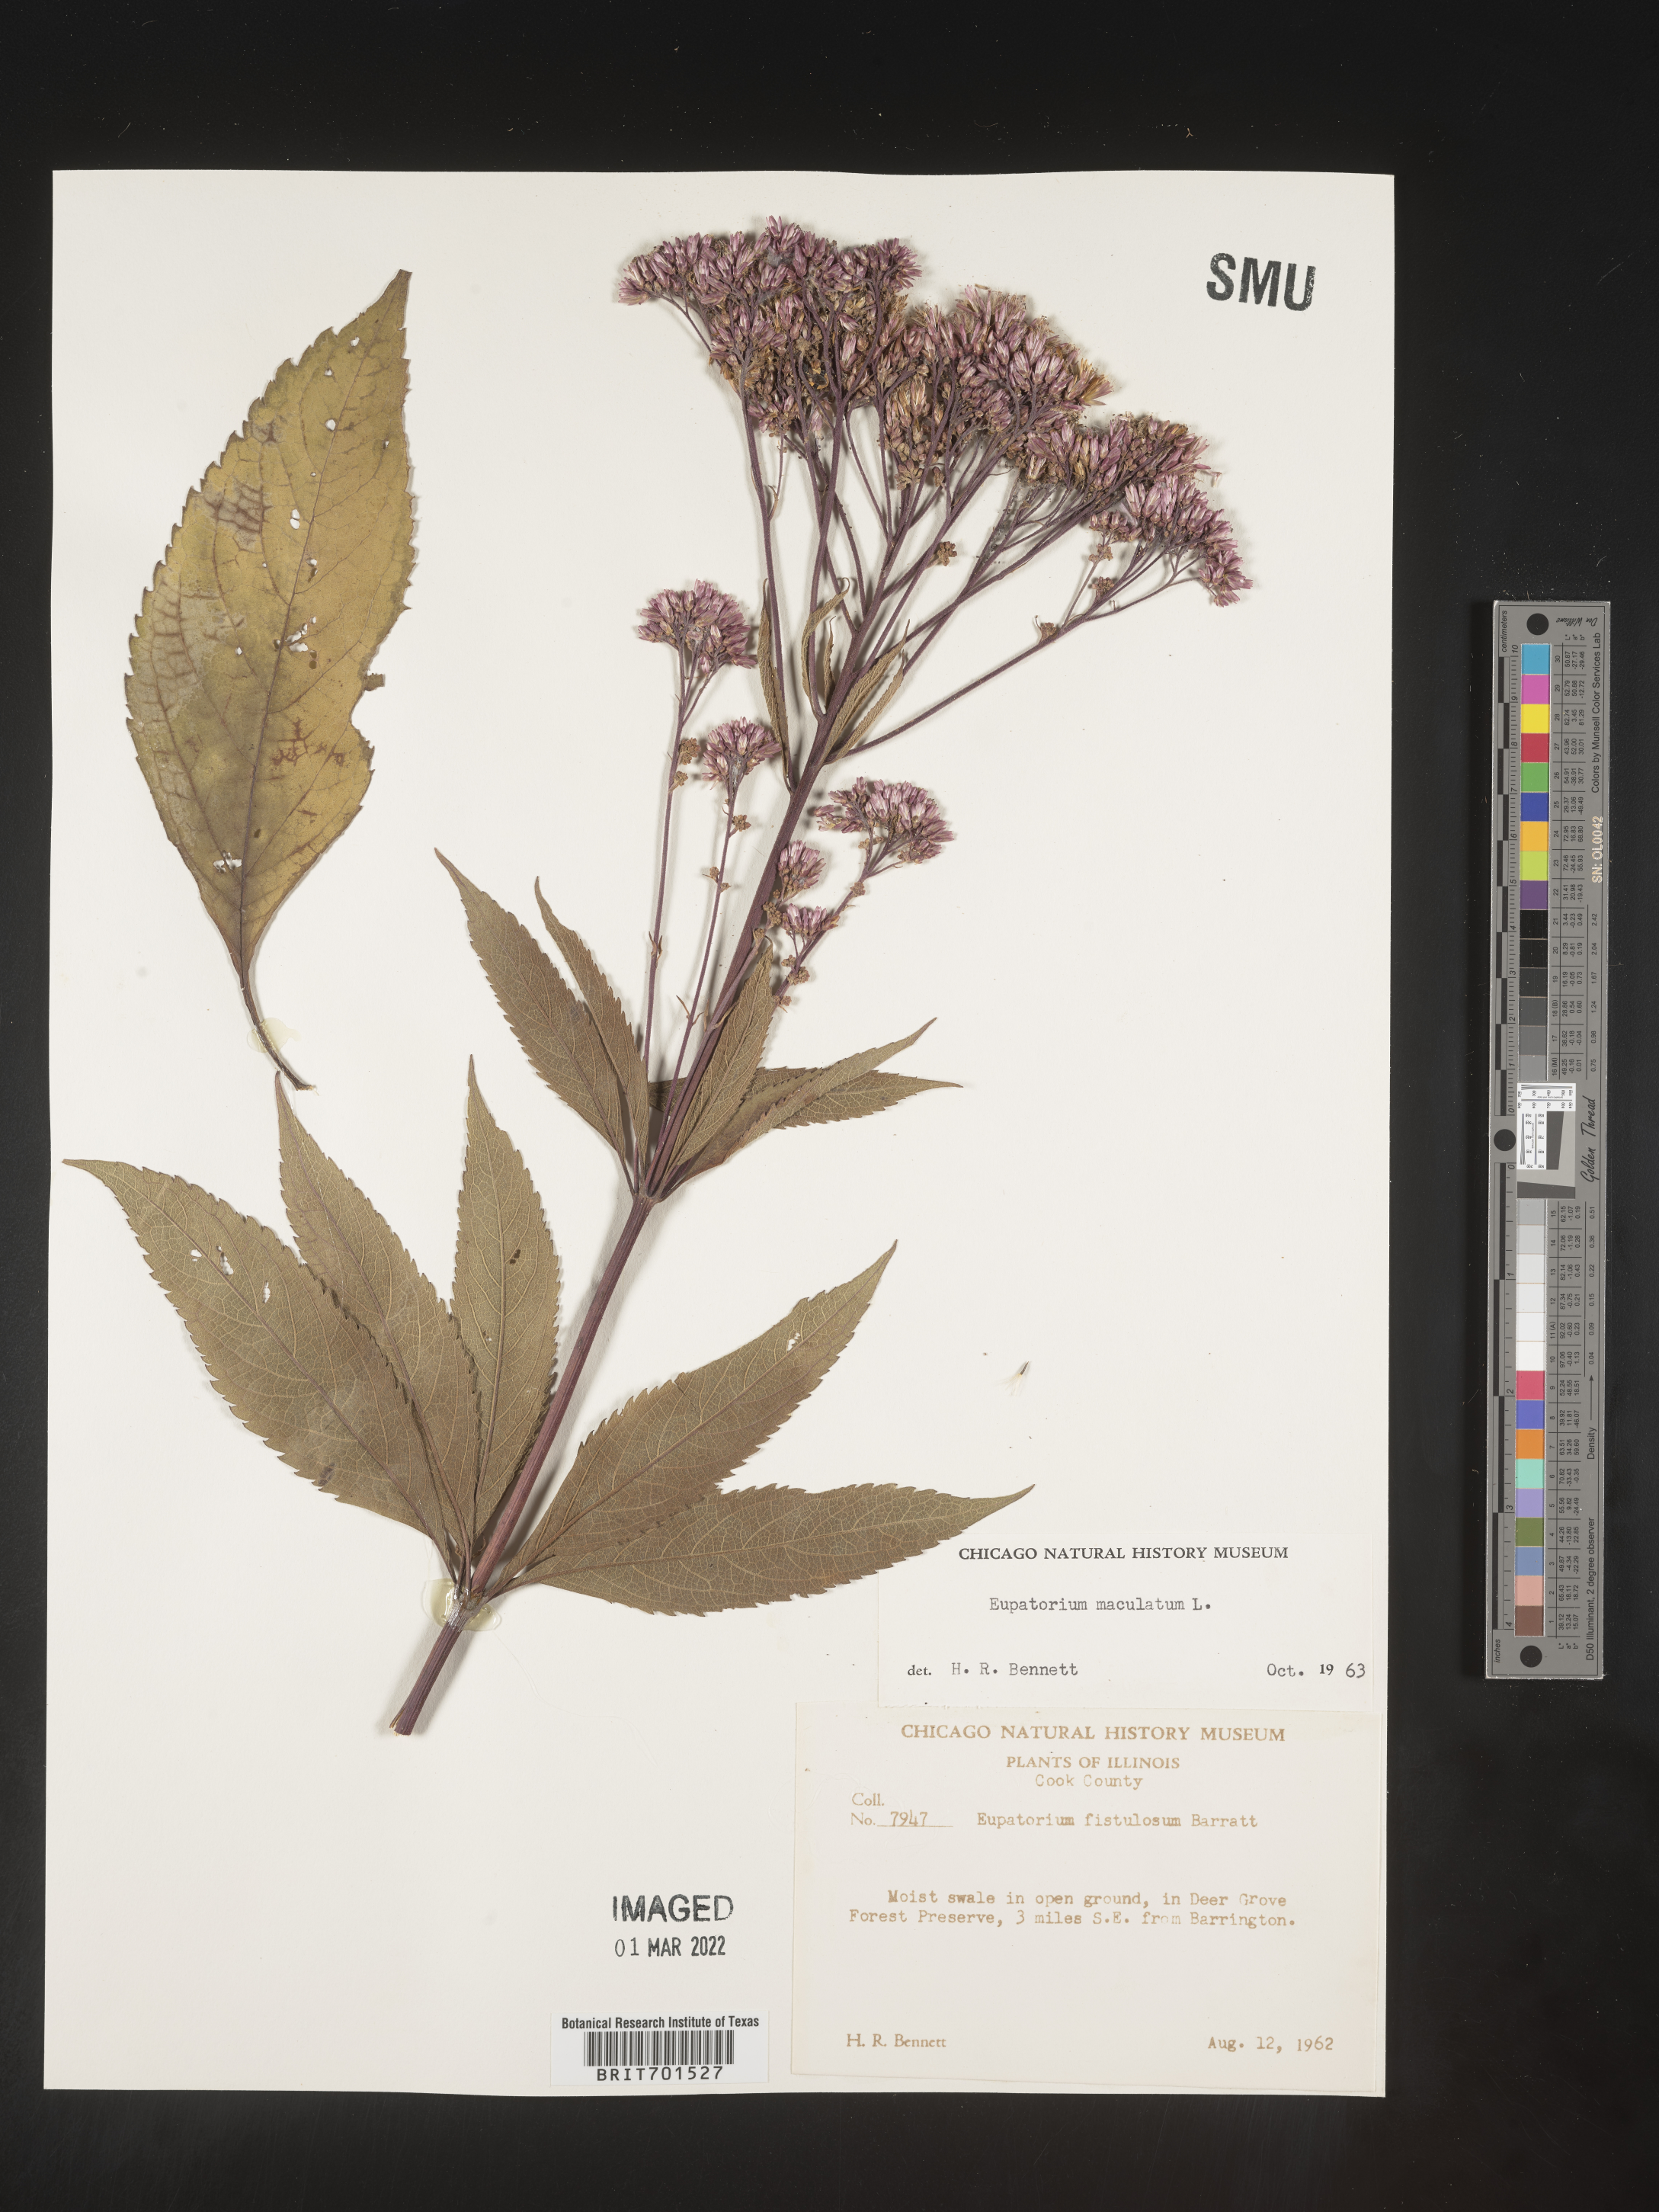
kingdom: Plantae
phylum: Tracheophyta
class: Magnoliopsida
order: Asterales
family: Asteraceae
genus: Eutrochium
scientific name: Eutrochium maculatum
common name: Spotted joe pye weed
